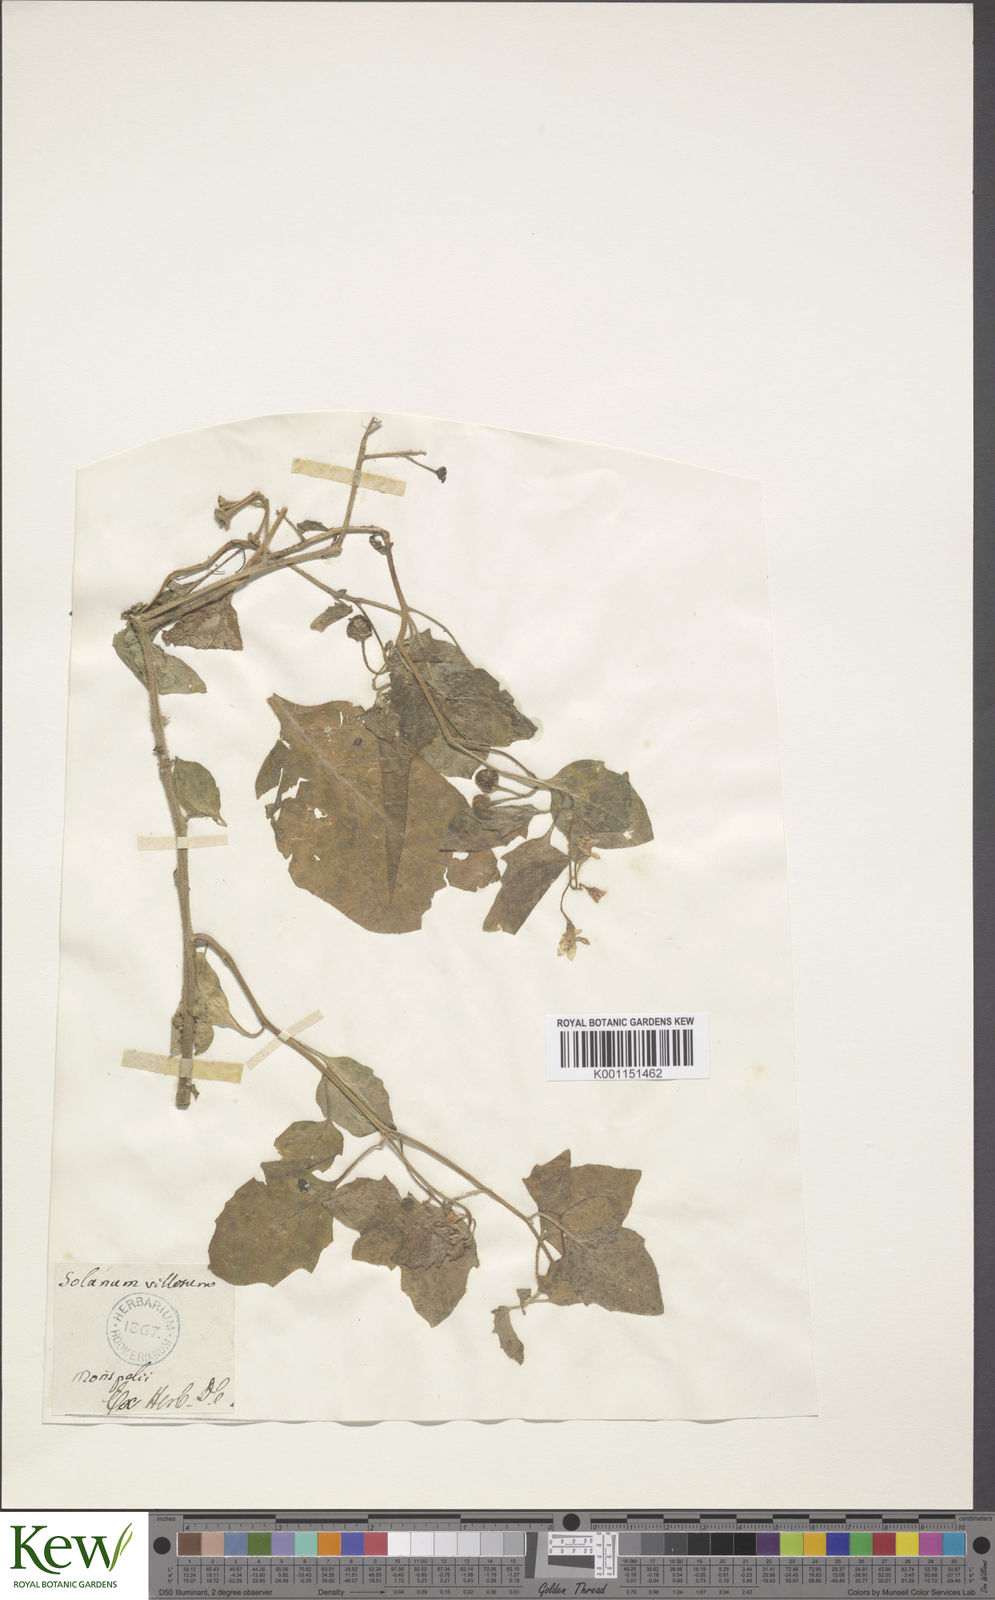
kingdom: Plantae
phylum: Tracheophyta
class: Magnoliopsida
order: Solanales
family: Solanaceae
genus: Solanum
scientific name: Solanum villosum
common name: Red nightshade
